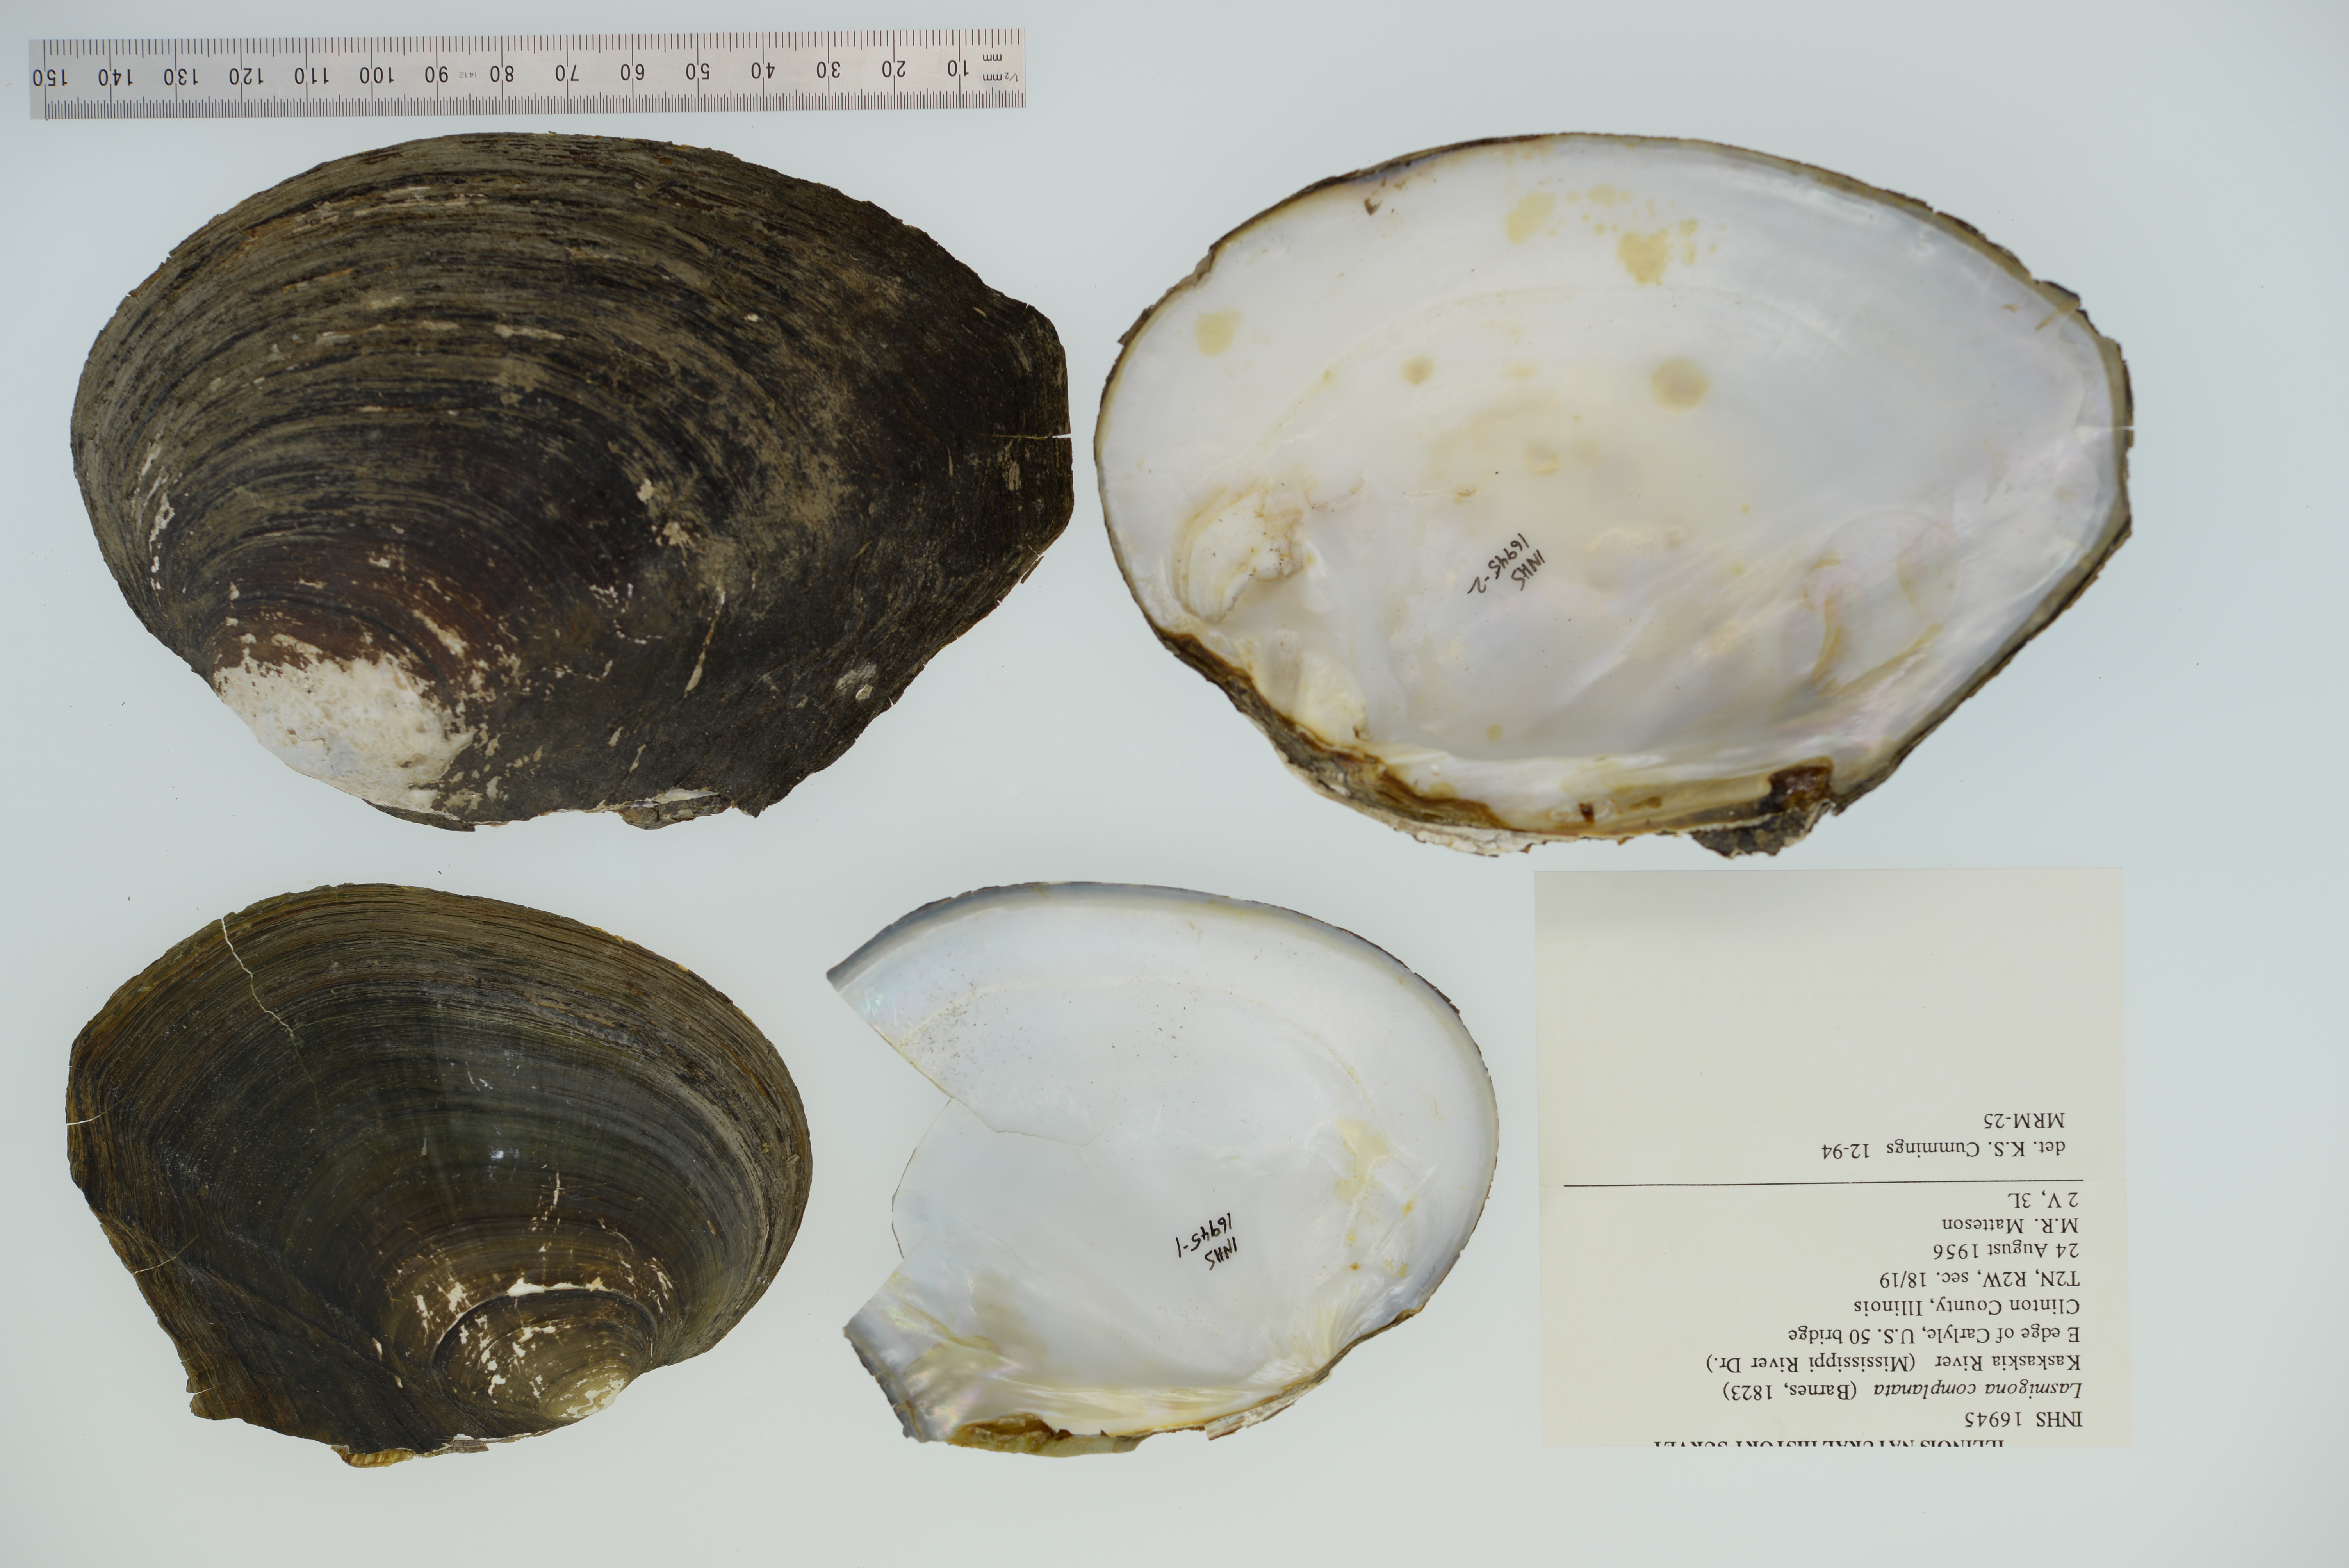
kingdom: Animalia
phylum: Mollusca
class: Bivalvia
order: Unionida
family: Unionidae
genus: Lasmigona
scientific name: Lasmigona complanata
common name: White heelsplitter
